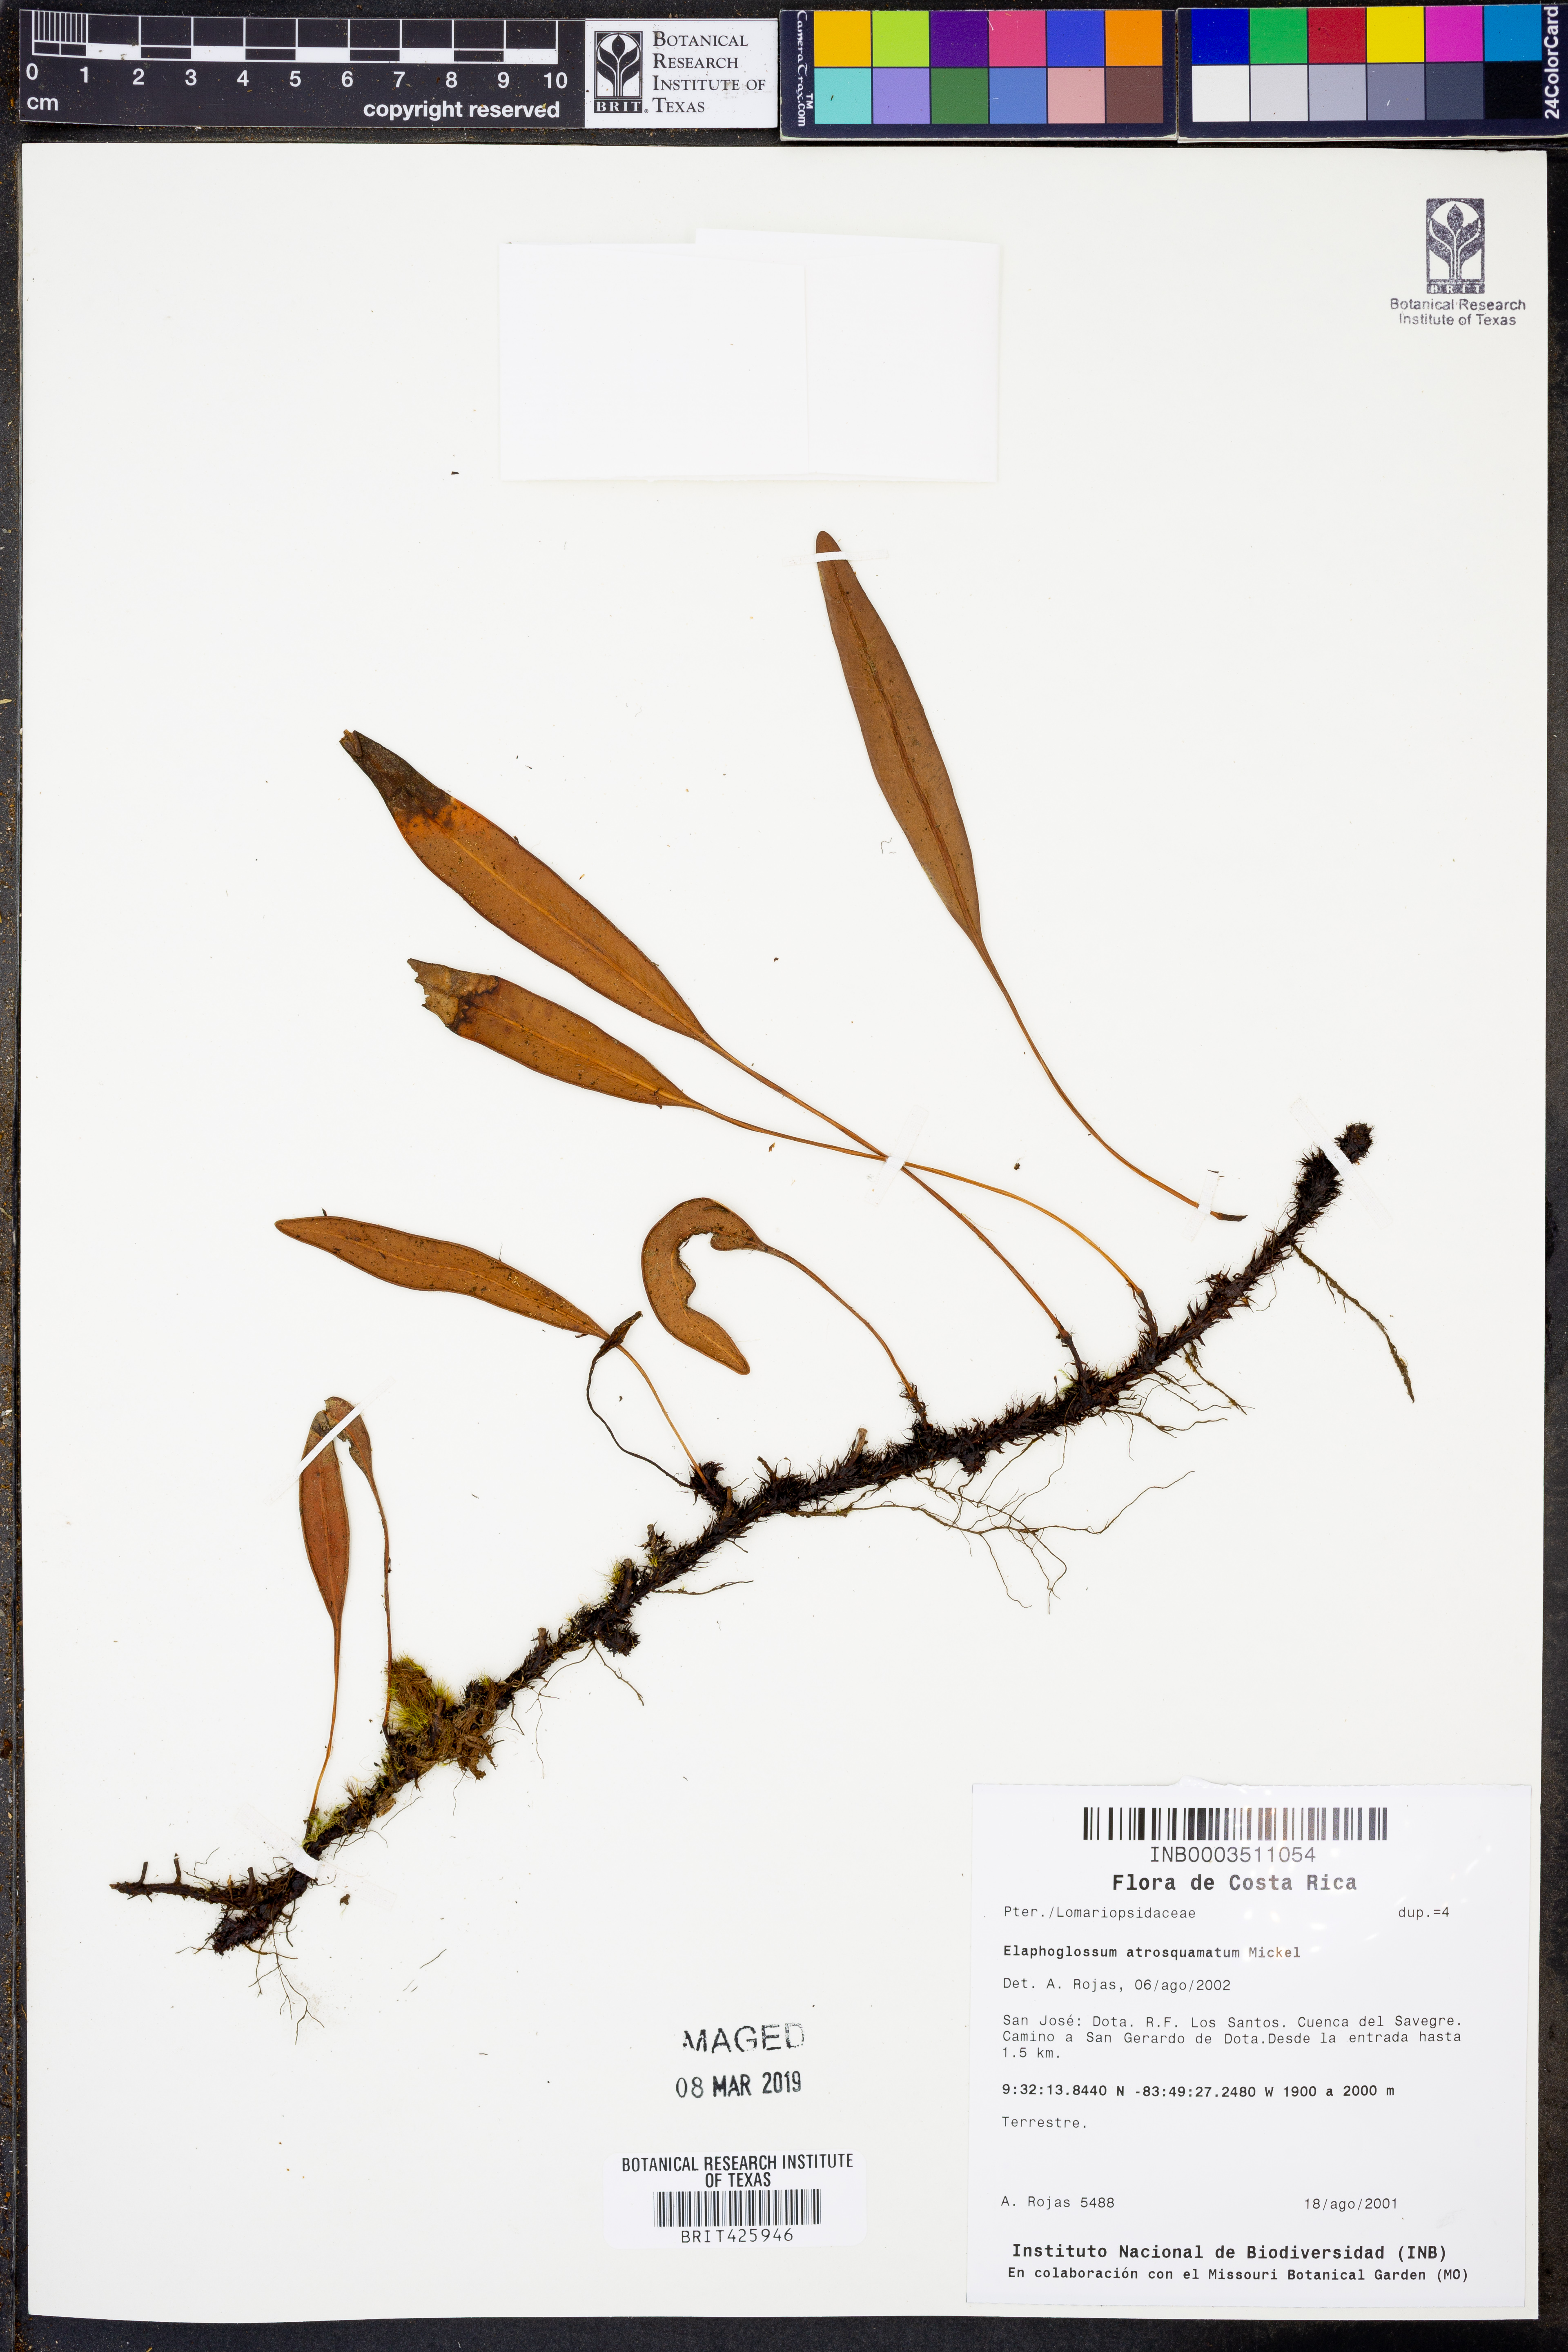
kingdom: Plantae
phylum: Tracheophyta
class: Polypodiopsida
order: Polypodiales
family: Dryopteridaceae
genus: Elaphoglossum
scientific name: Elaphoglossum unduaviense
